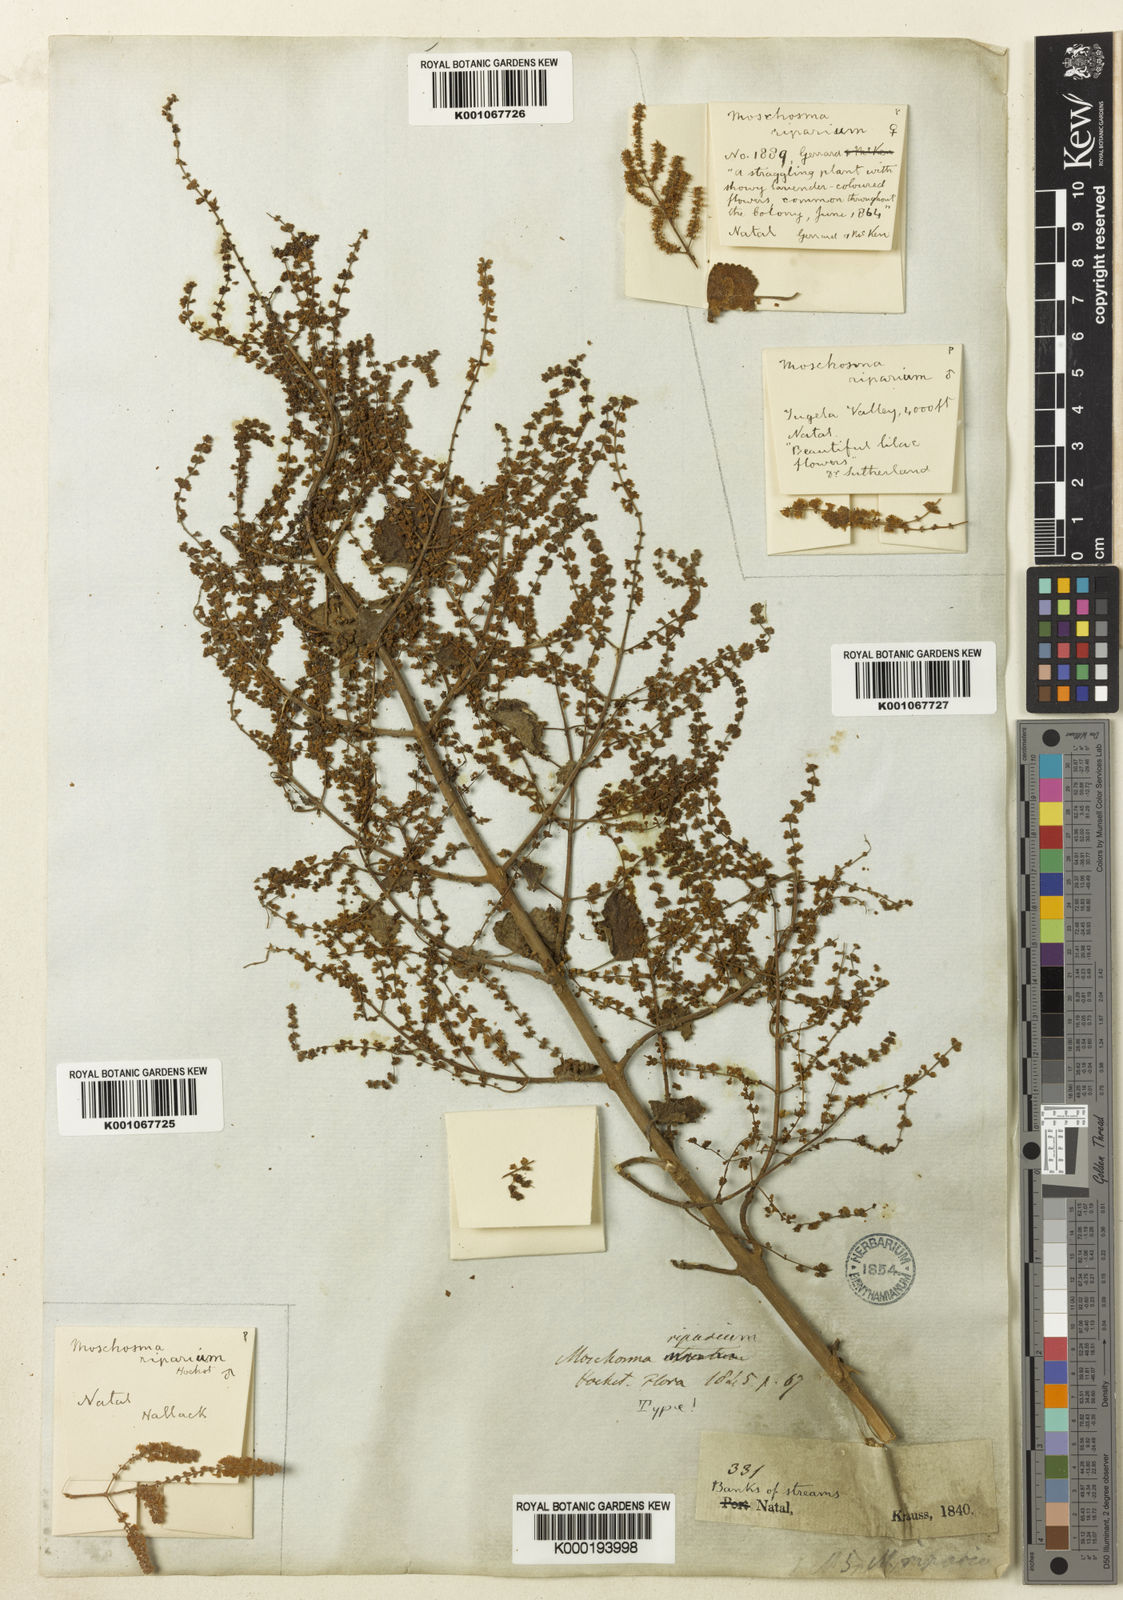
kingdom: Plantae
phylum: Tracheophyta
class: Magnoliopsida
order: Lamiales
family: Lamiaceae
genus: Tetradenia
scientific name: Tetradenia riparia
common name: Gingerbush
